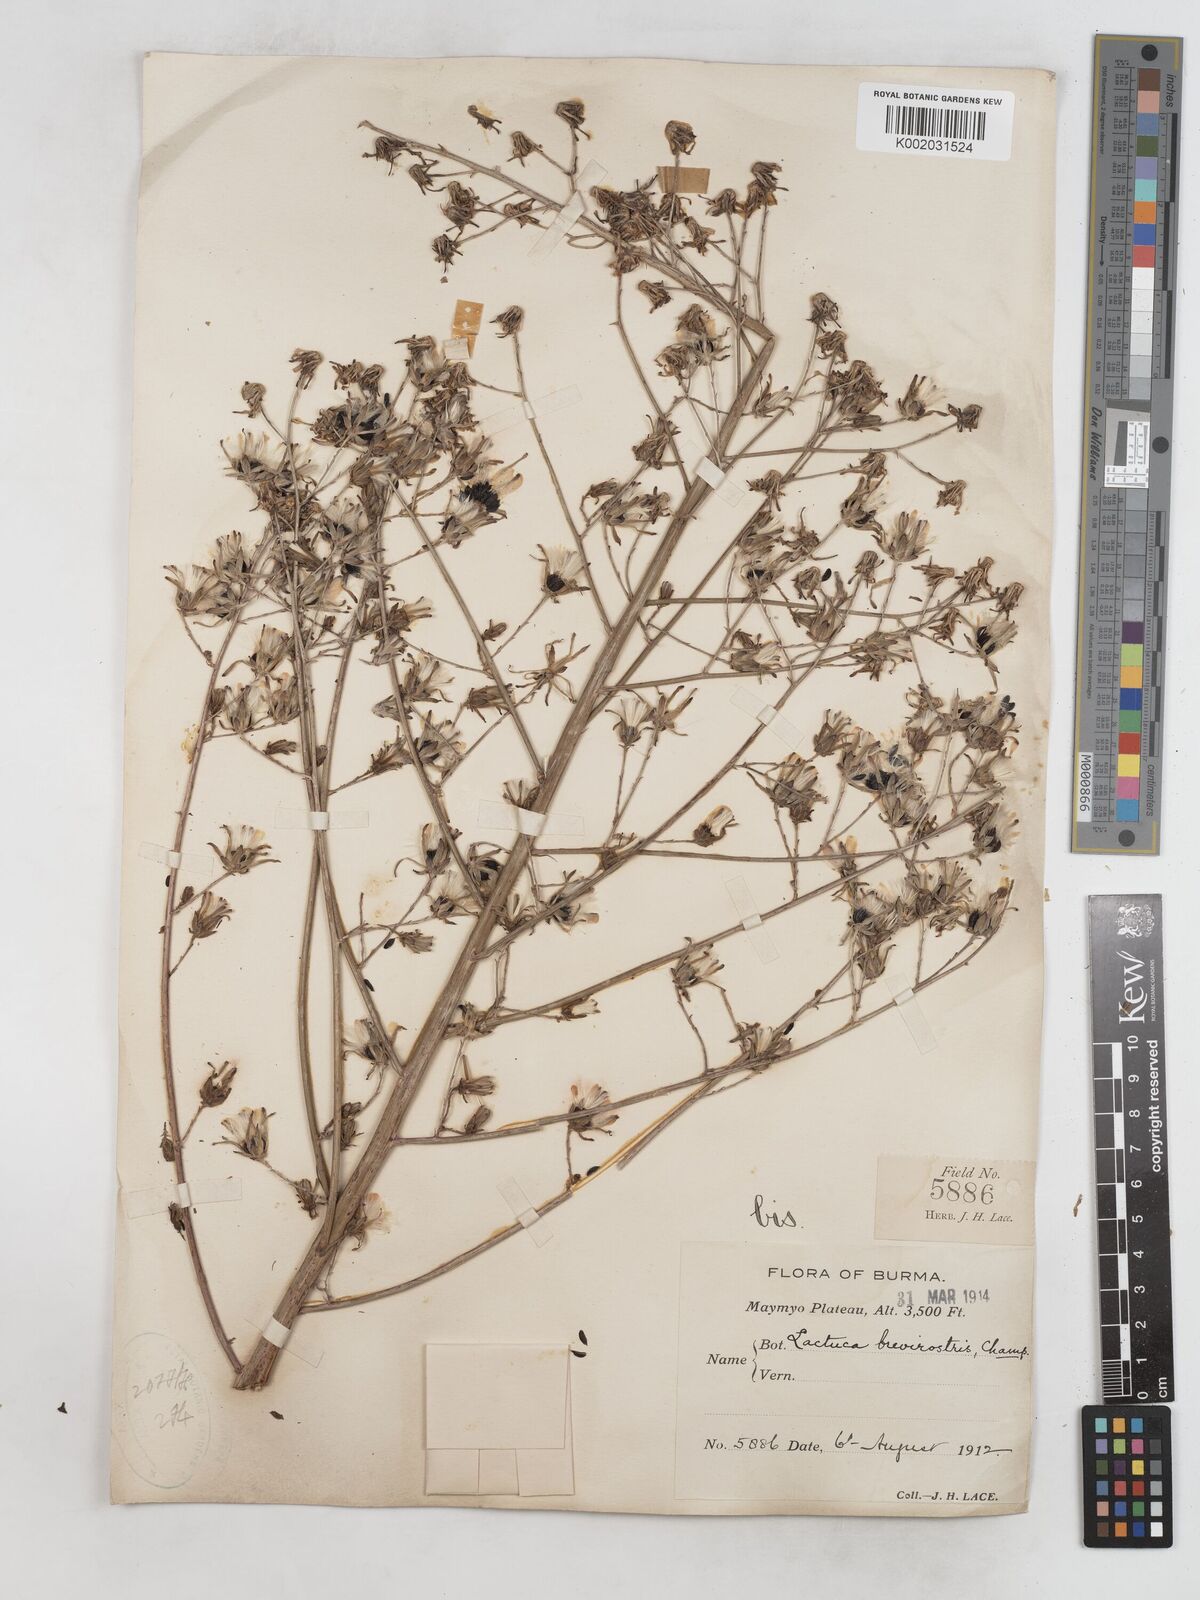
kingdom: Plantae
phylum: Tracheophyta
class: Magnoliopsida
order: Asterales
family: Asteraceae
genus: Lactuca
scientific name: Lactuca indica
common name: Wild lettuce
